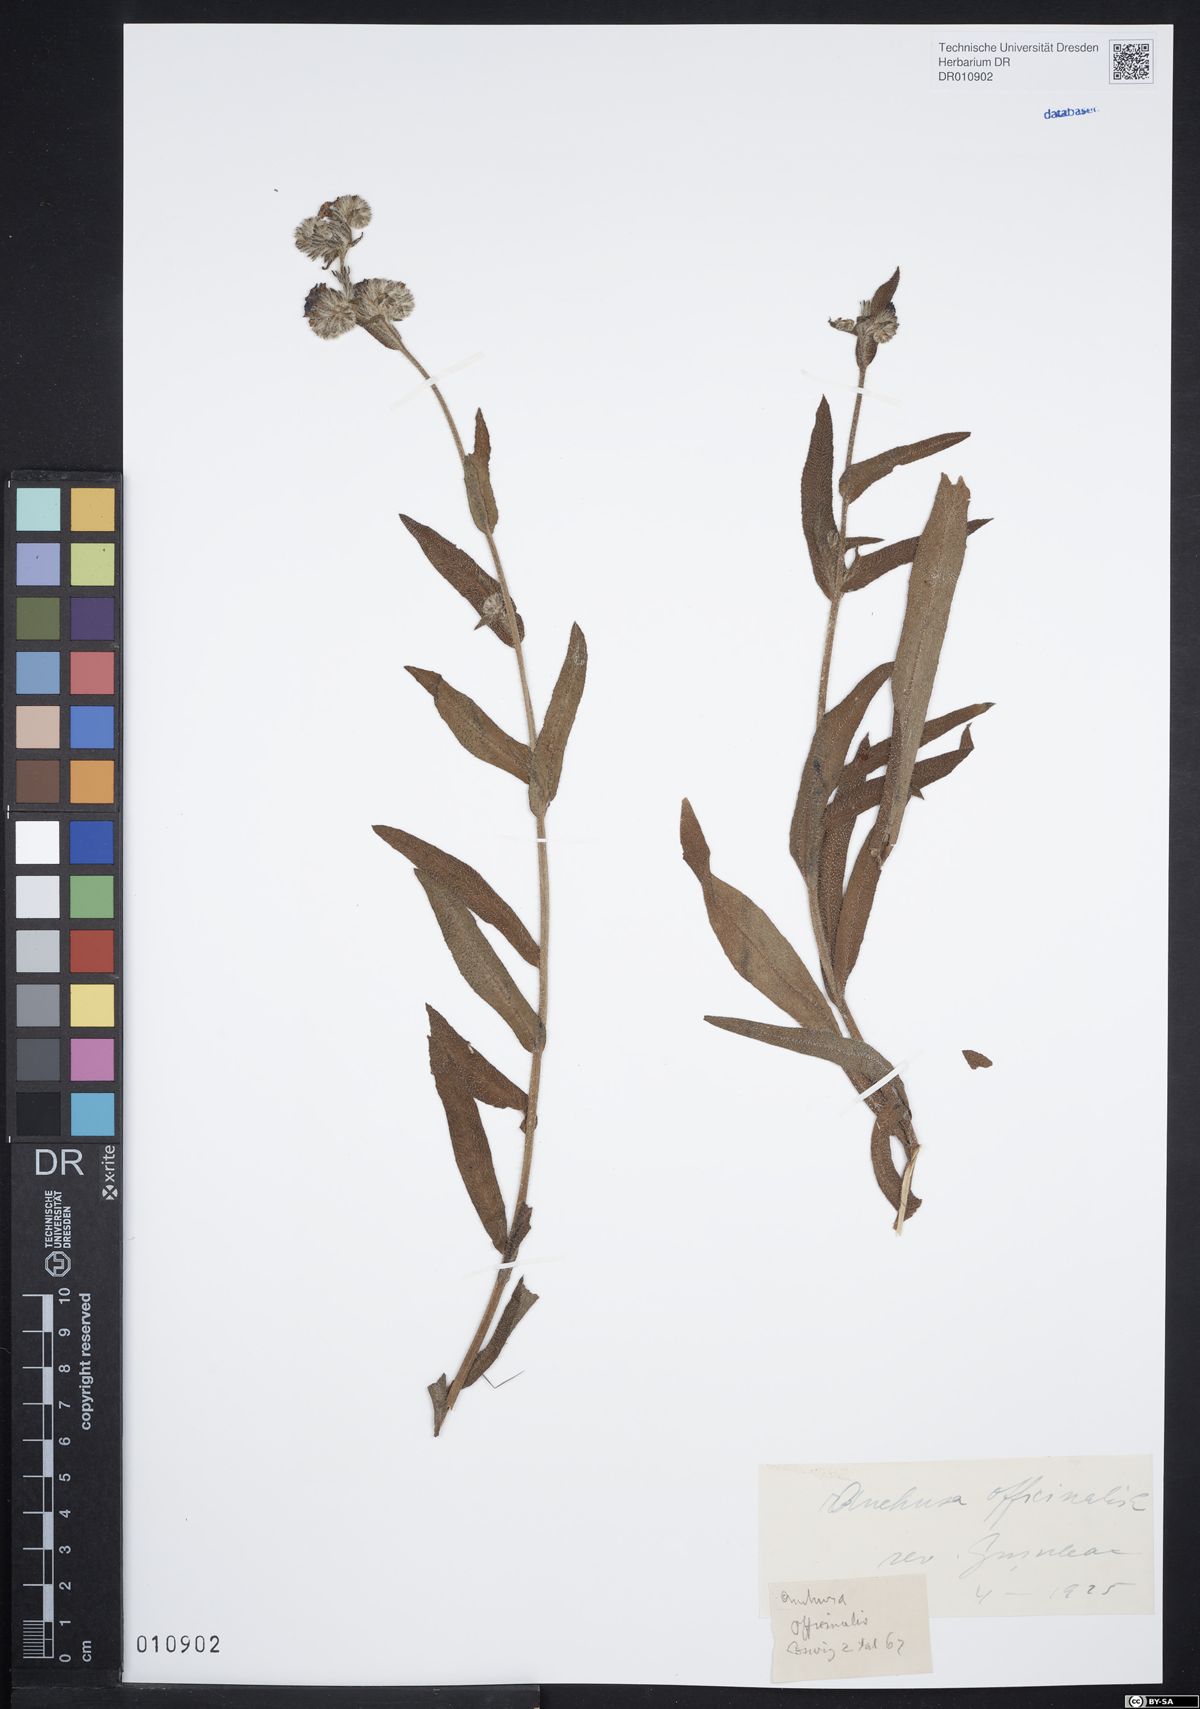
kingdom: Plantae
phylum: Tracheophyta
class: Magnoliopsida
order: Boraginales
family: Boraginaceae
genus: Anchusa
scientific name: Anchusa officinalis
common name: Alkanet
